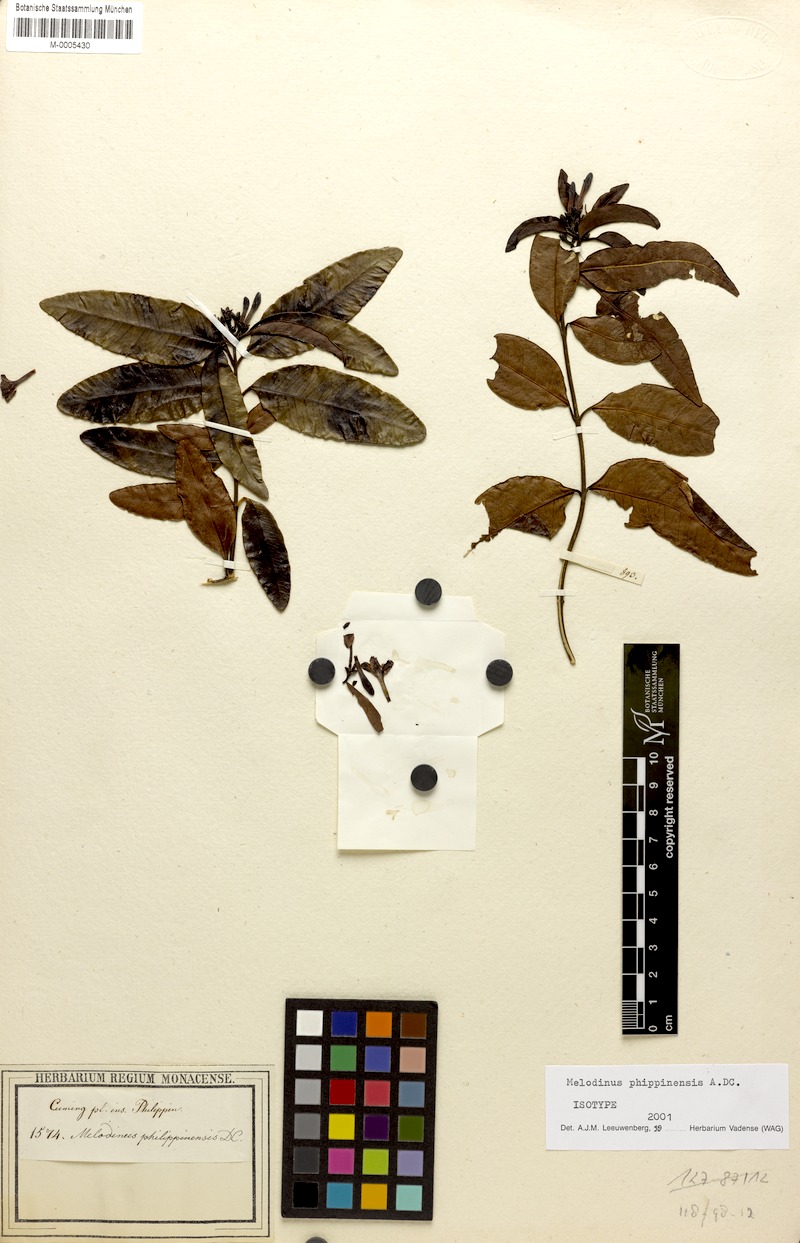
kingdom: Plantae
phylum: Tracheophyta
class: Magnoliopsida
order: Gentianales
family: Apocynaceae
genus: Melodinus
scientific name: Melodinus philippensis
